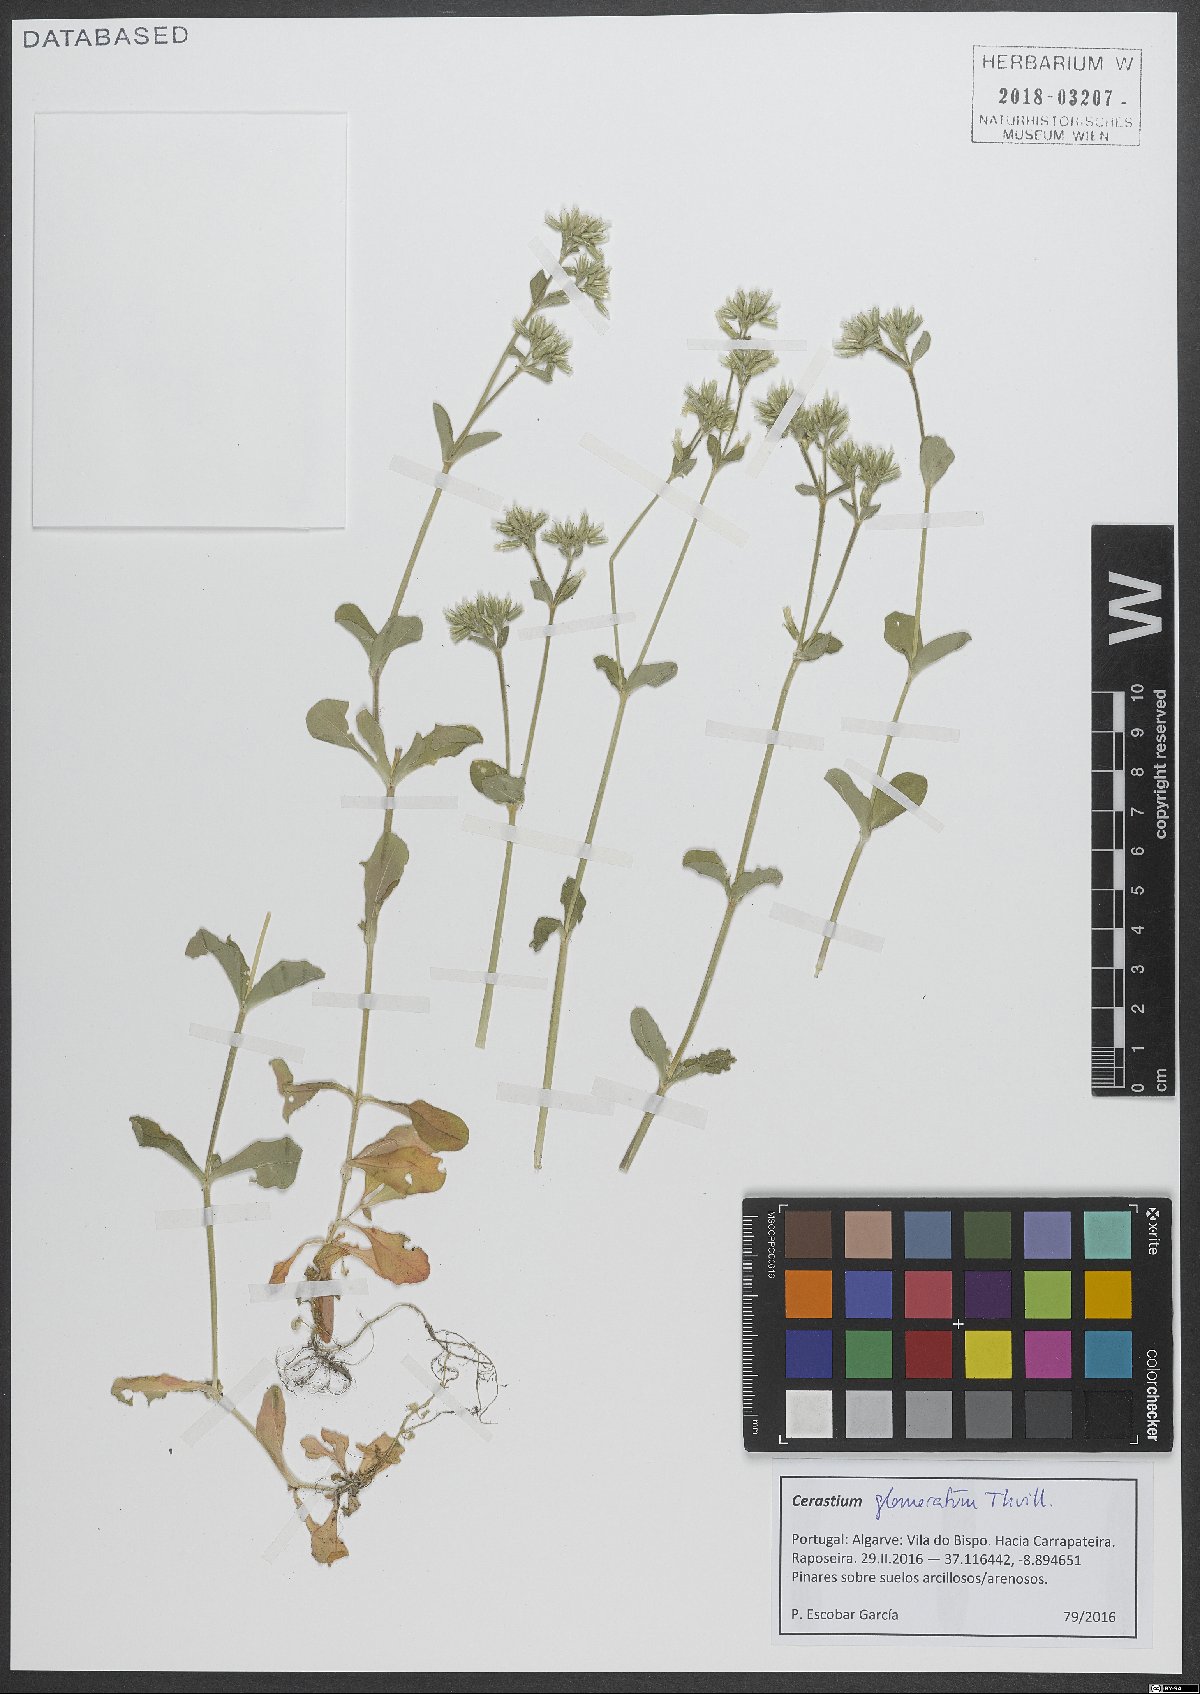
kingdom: Plantae
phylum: Tracheophyta
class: Magnoliopsida
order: Caryophyllales
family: Caryophyllaceae
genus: Cerastium
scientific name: Cerastium glomeratum
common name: Sticky chickweed
